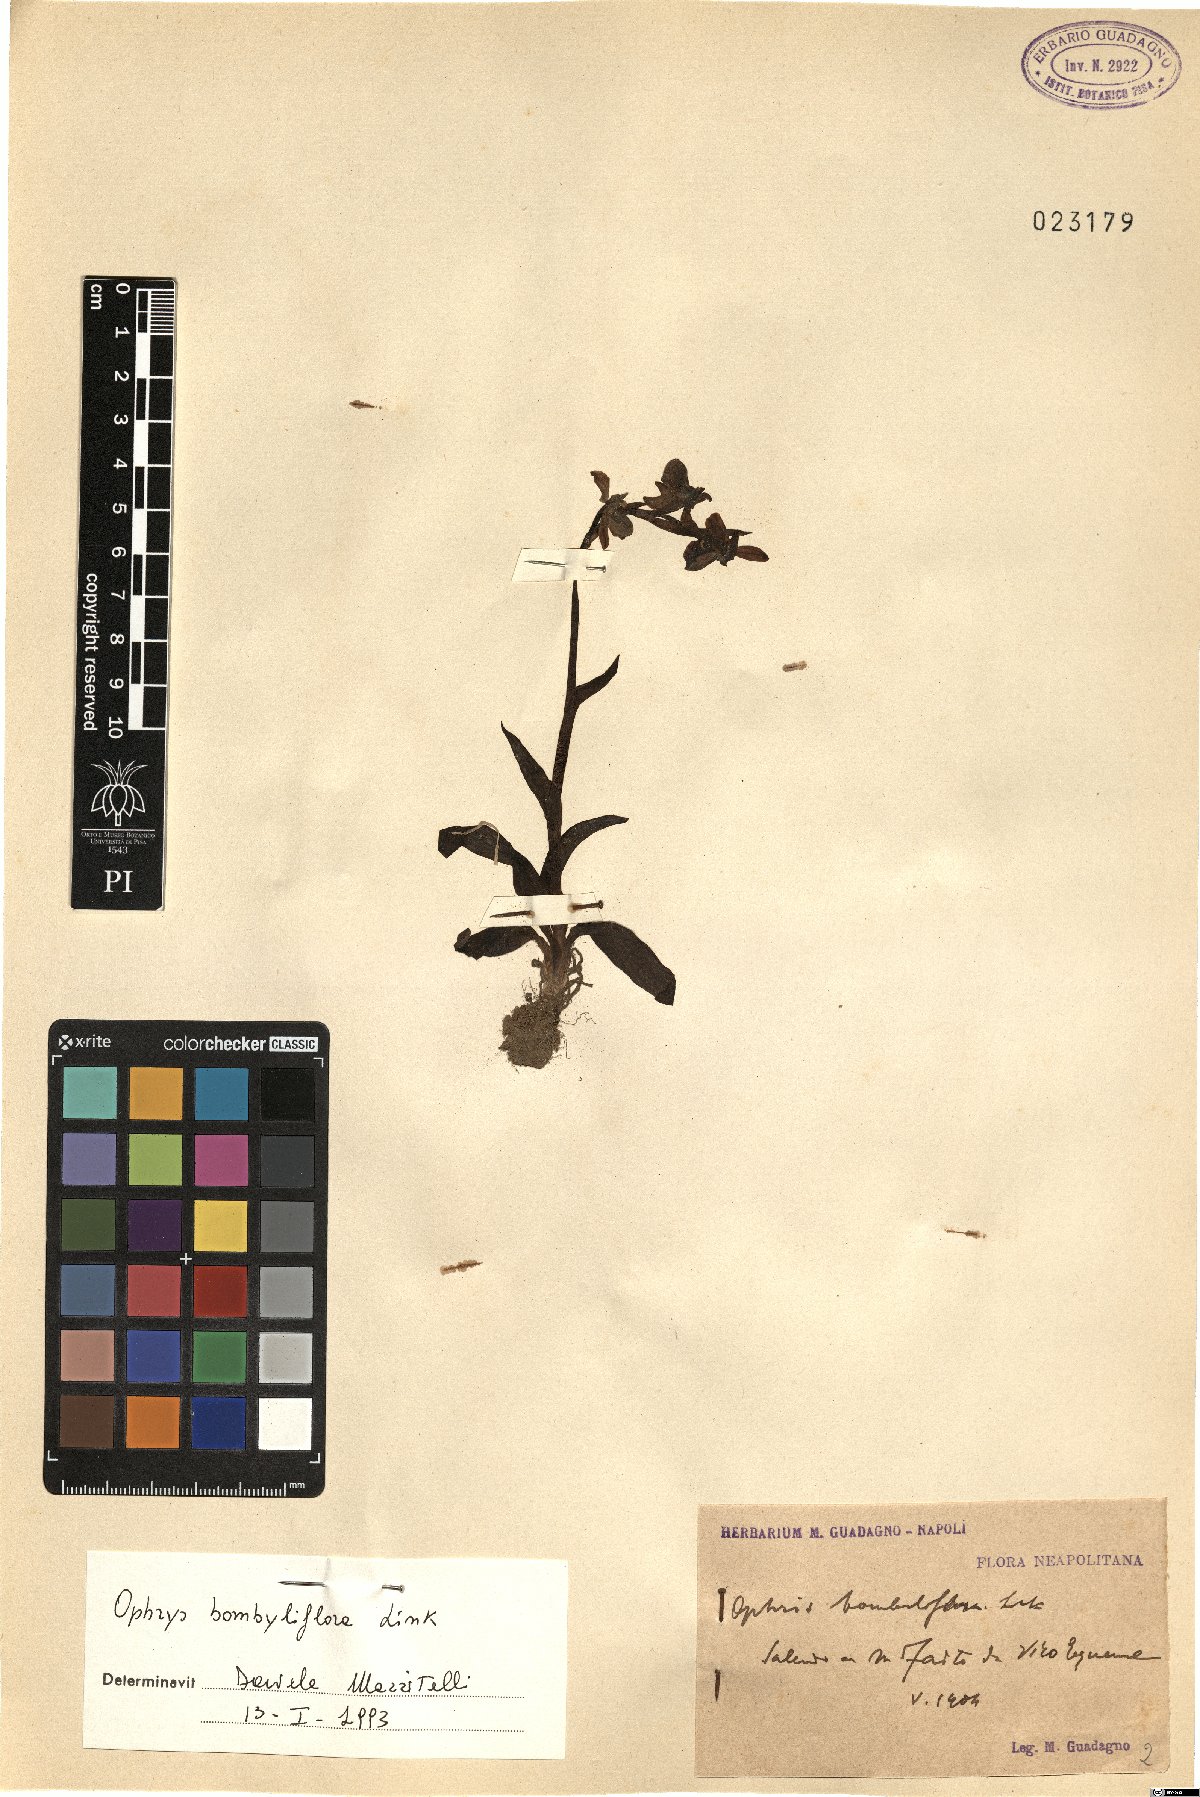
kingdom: Plantae
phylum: Tracheophyta
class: Liliopsida
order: Asparagales
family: Orchidaceae
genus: Ophrys
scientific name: Ophrys bombyliflora
